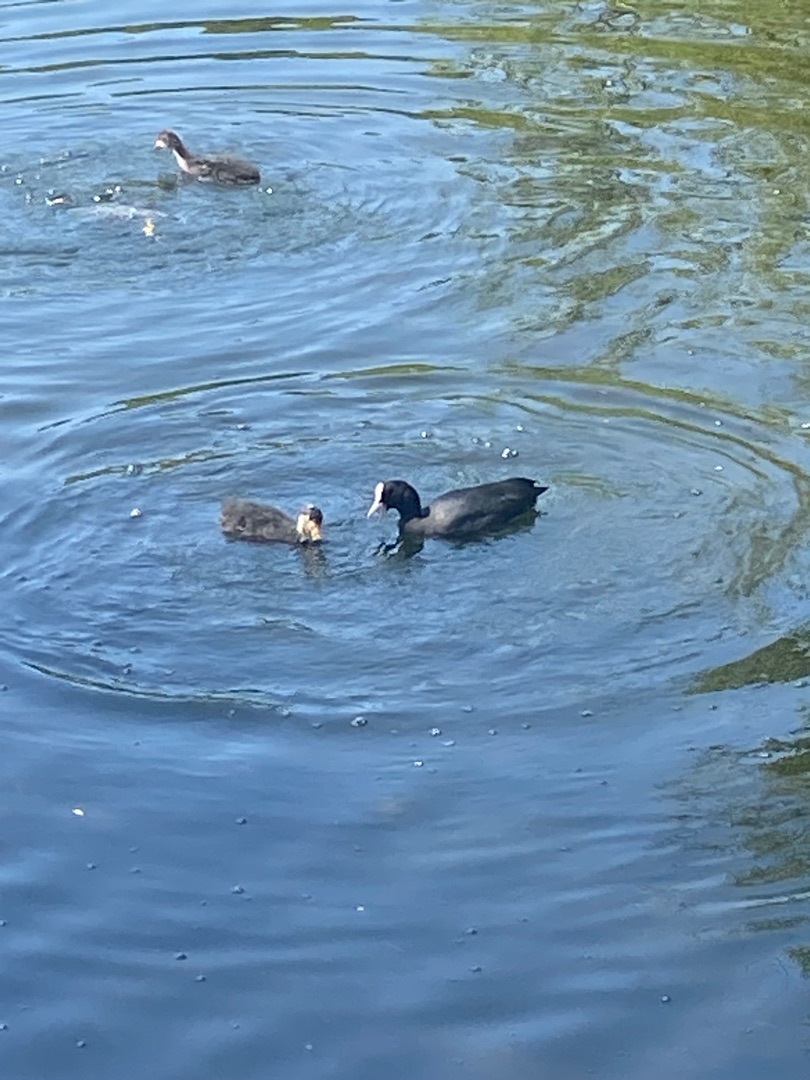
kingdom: Animalia
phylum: Chordata
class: Aves
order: Gruiformes
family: Rallidae
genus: Fulica
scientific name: Fulica atra
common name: Blishøne
